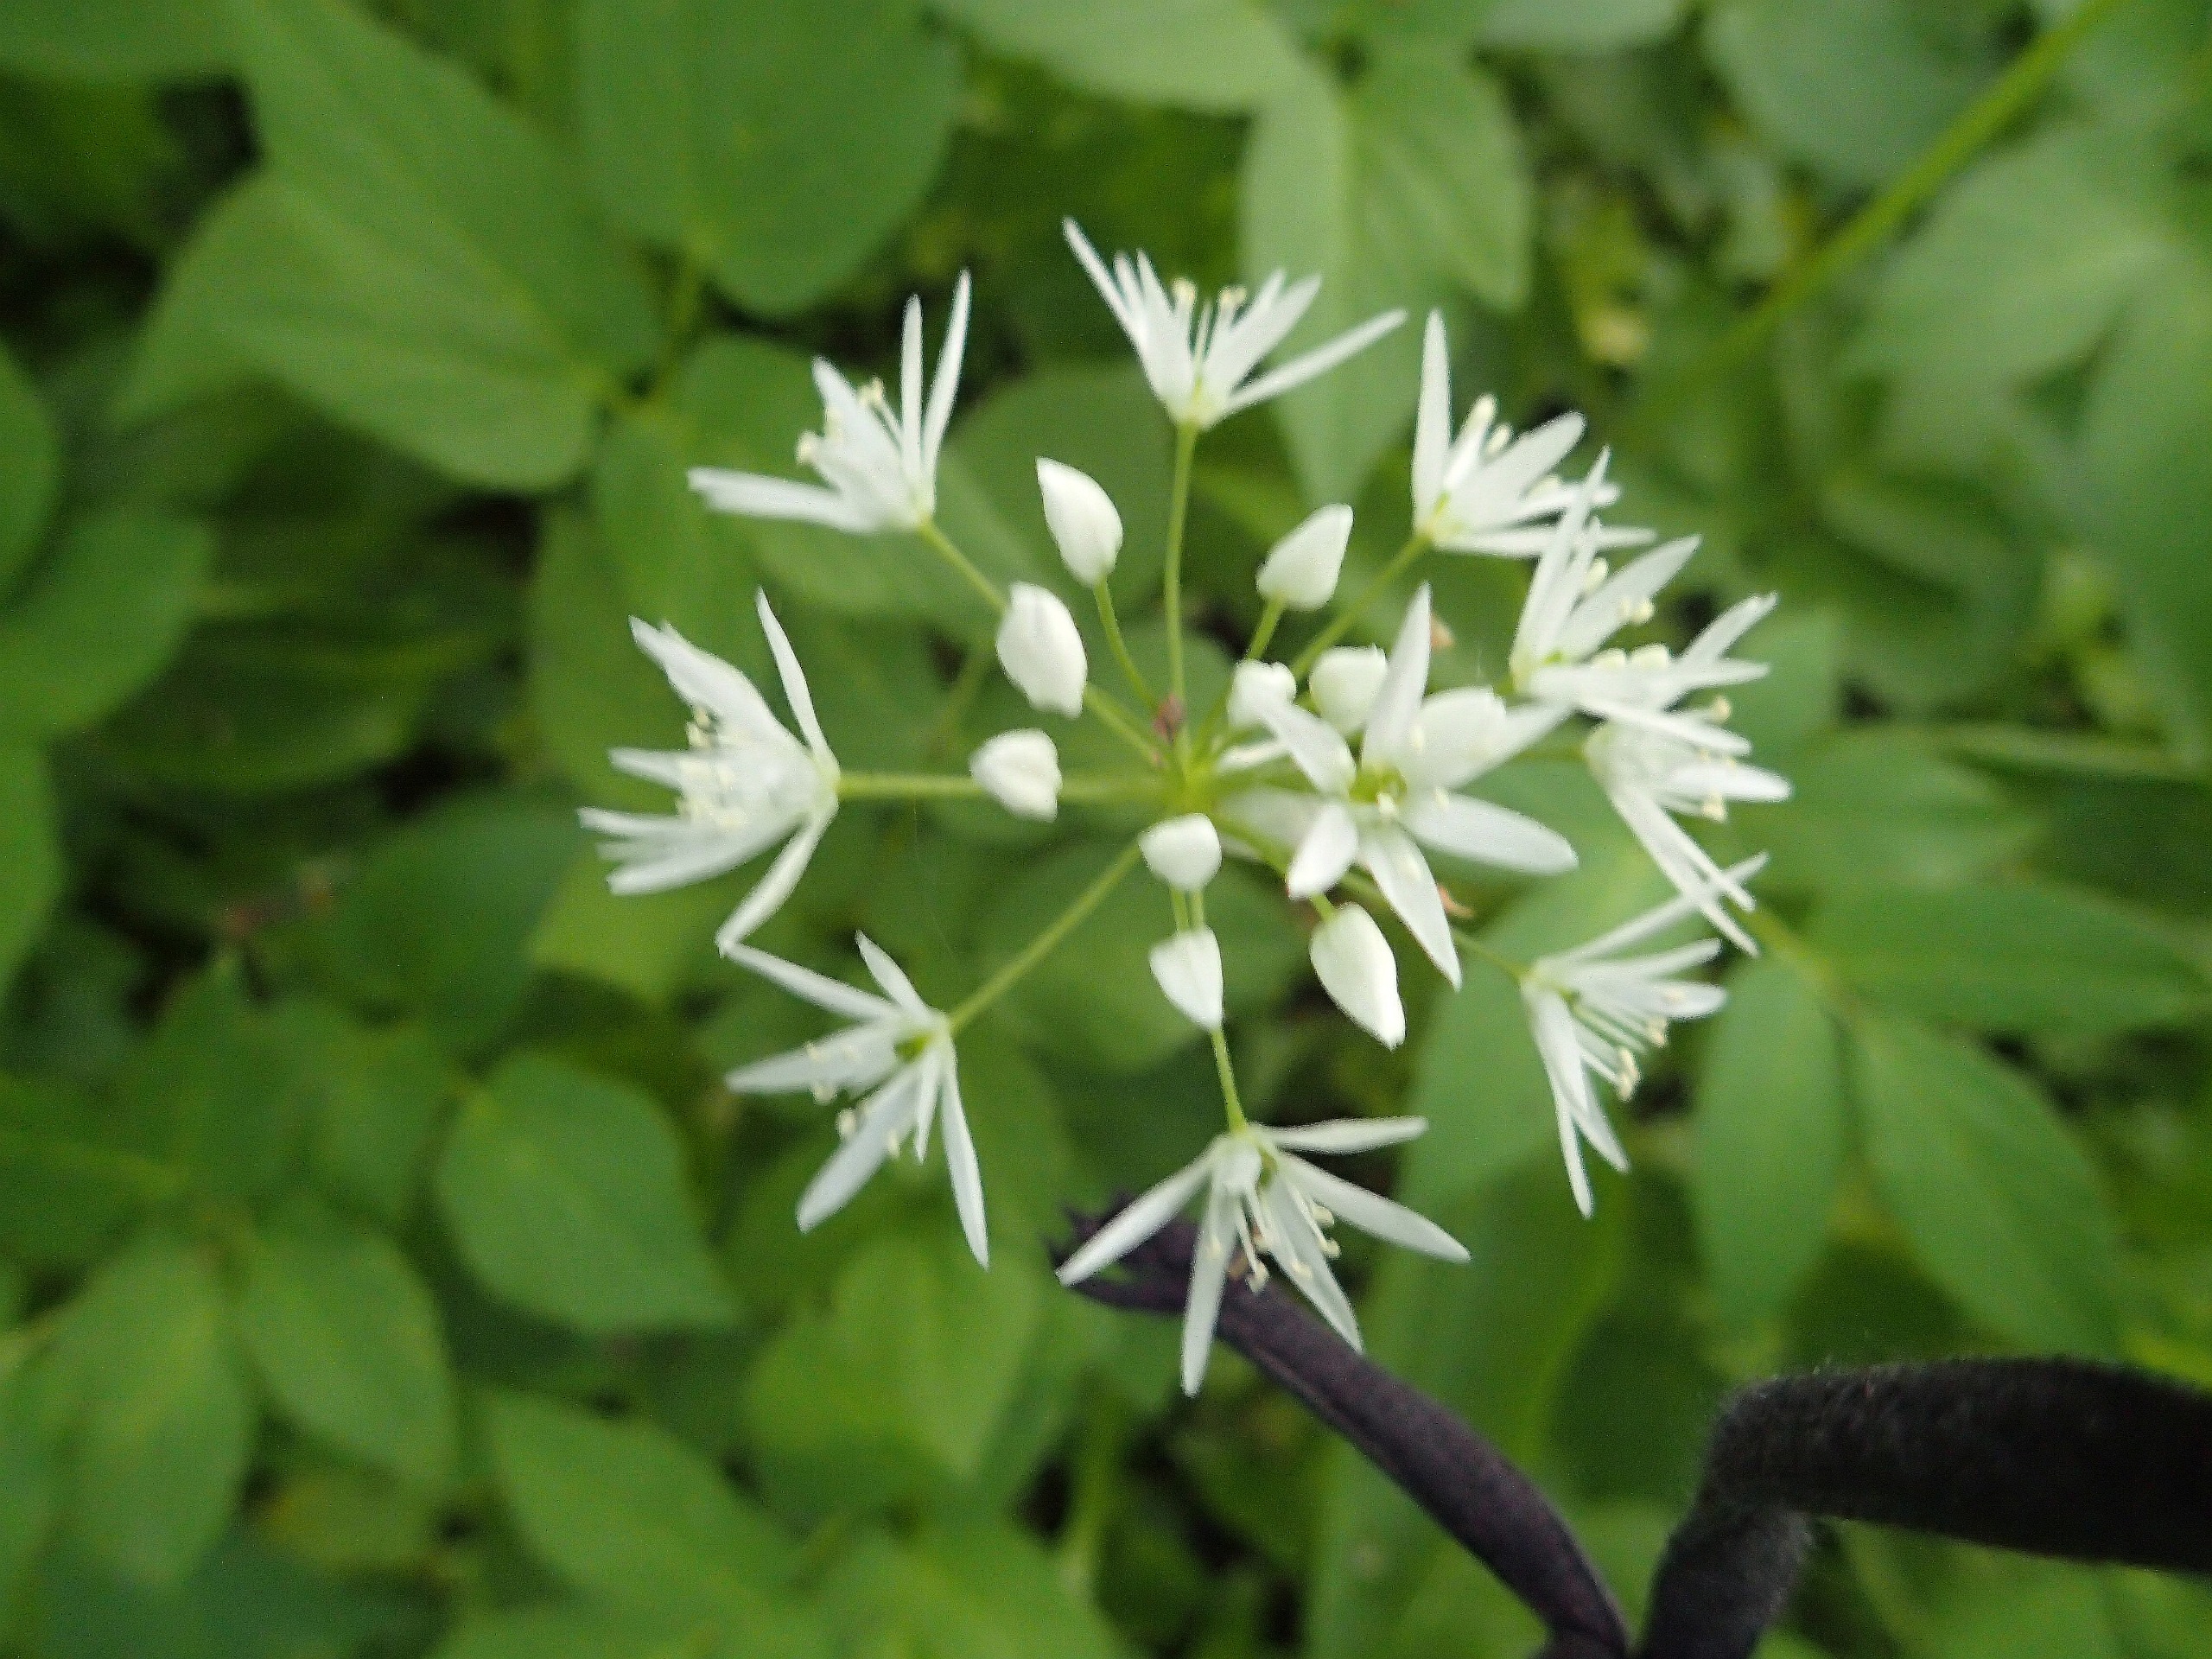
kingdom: Plantae
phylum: Tracheophyta
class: Liliopsida
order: Asparagales
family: Amaryllidaceae
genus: Allium
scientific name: Allium ursinum
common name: Rams-løg
